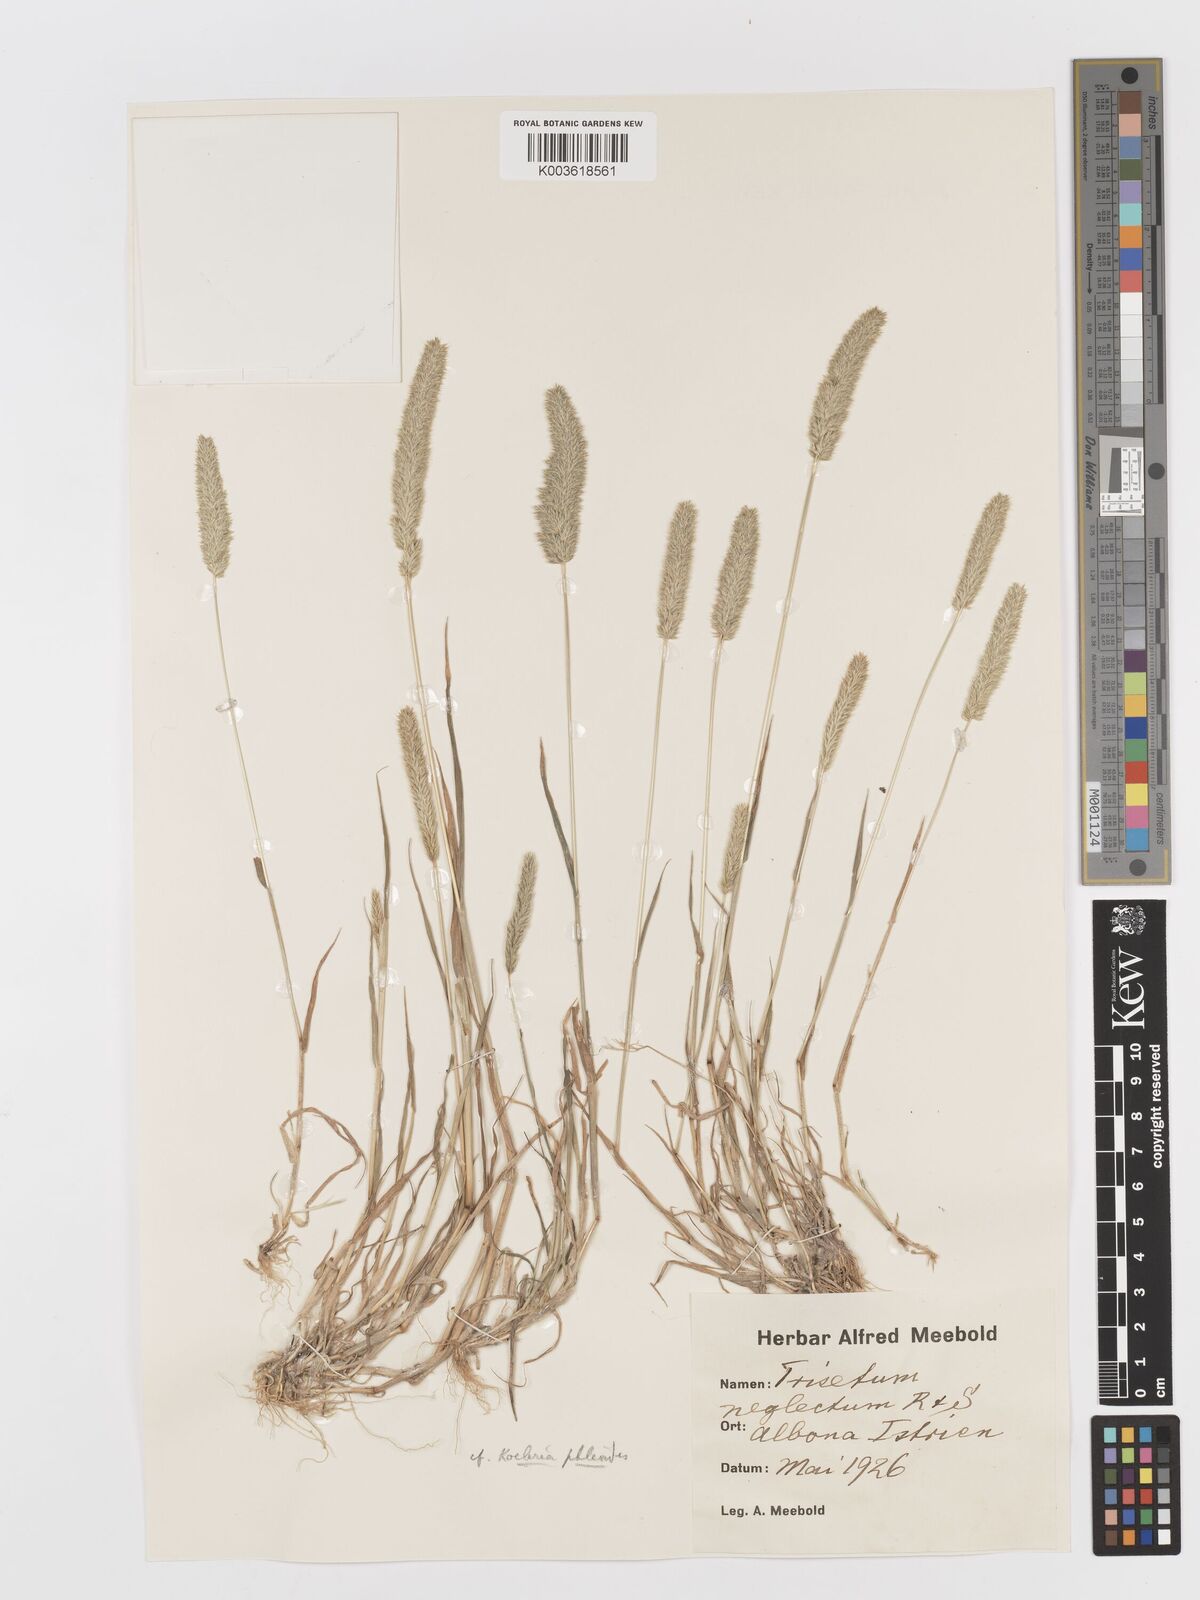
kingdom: Plantae
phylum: Tracheophyta
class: Liliopsida
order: Poales
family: Poaceae
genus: Rostraria
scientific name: Rostraria cristata
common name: Mediterranean hair-grass
